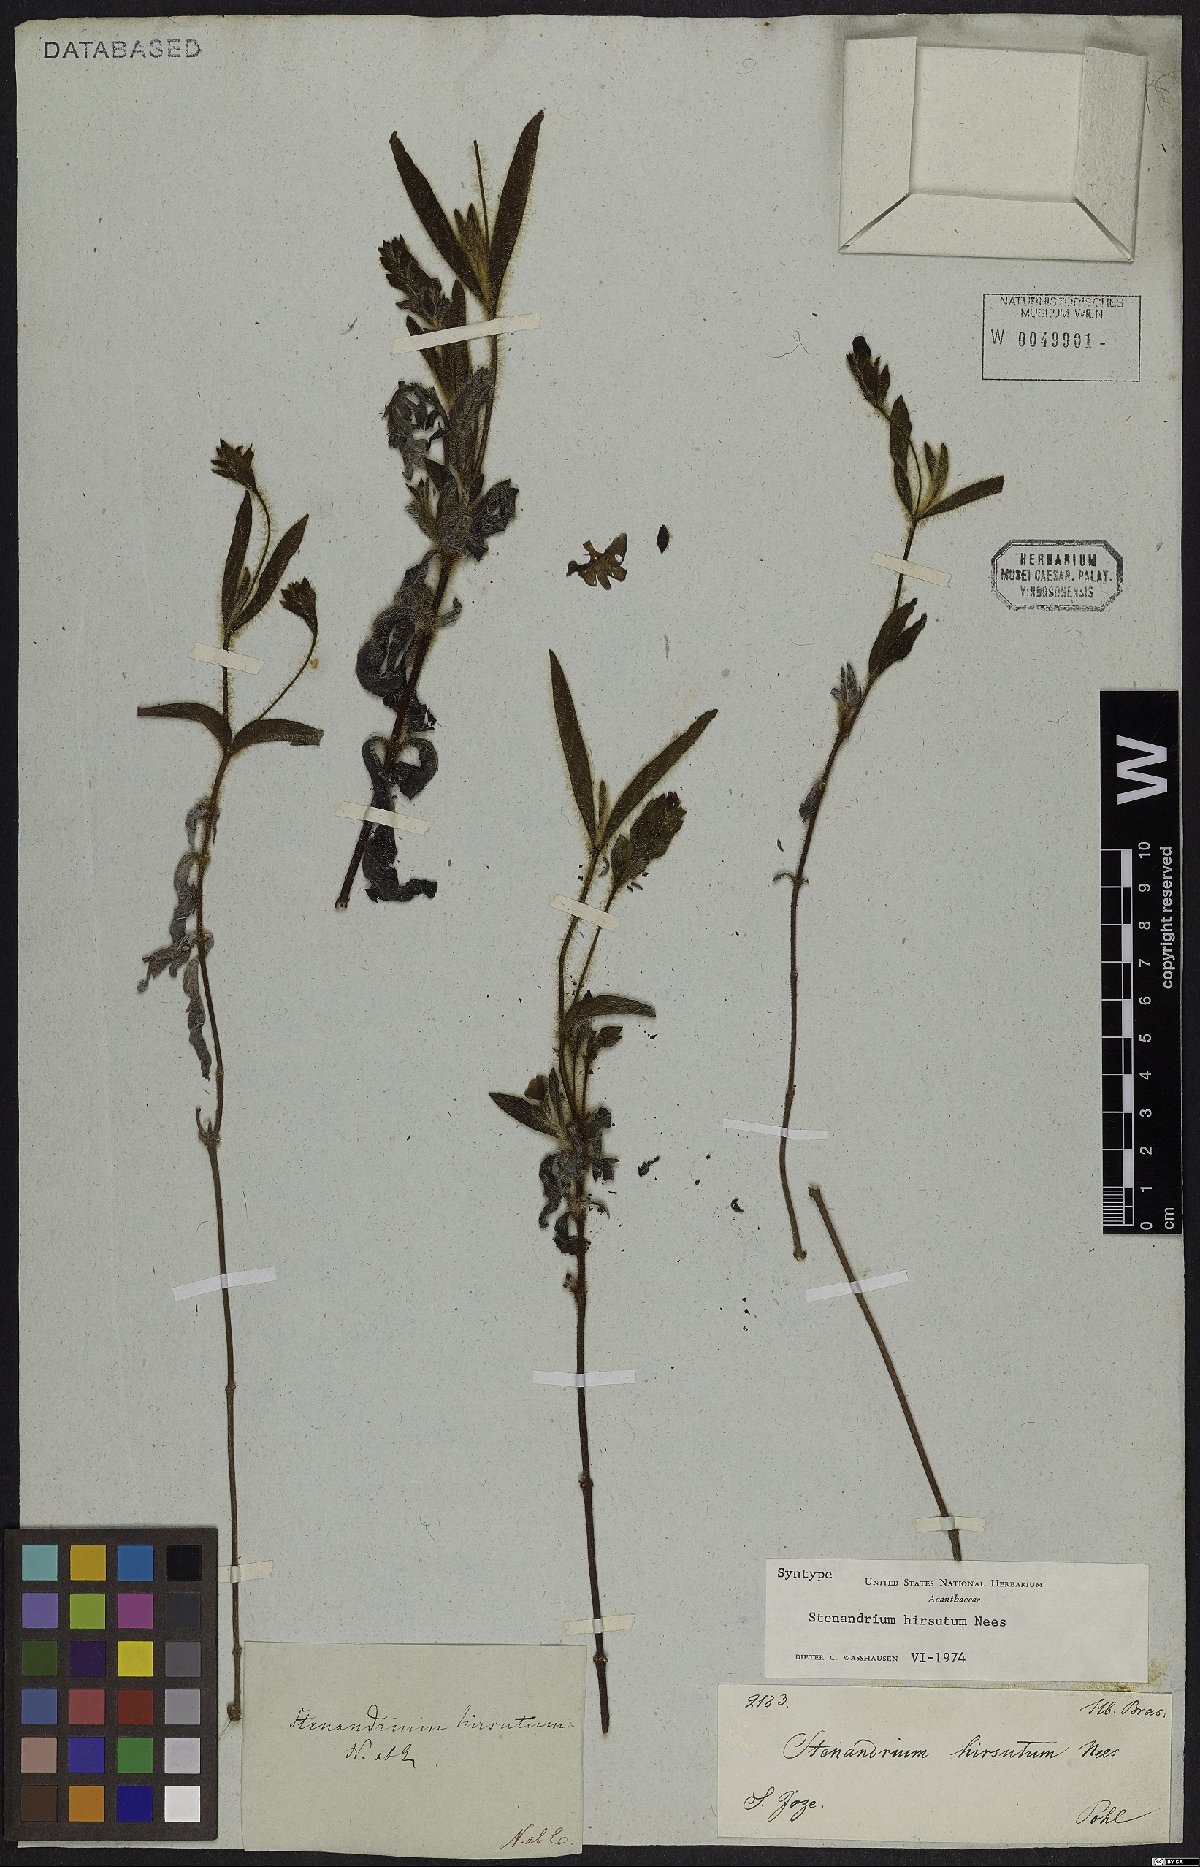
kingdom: Plantae
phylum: Tracheophyta
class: Magnoliopsida
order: Lamiales
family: Acanthaceae
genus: Stenandrium
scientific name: Stenandrium hirsutum
